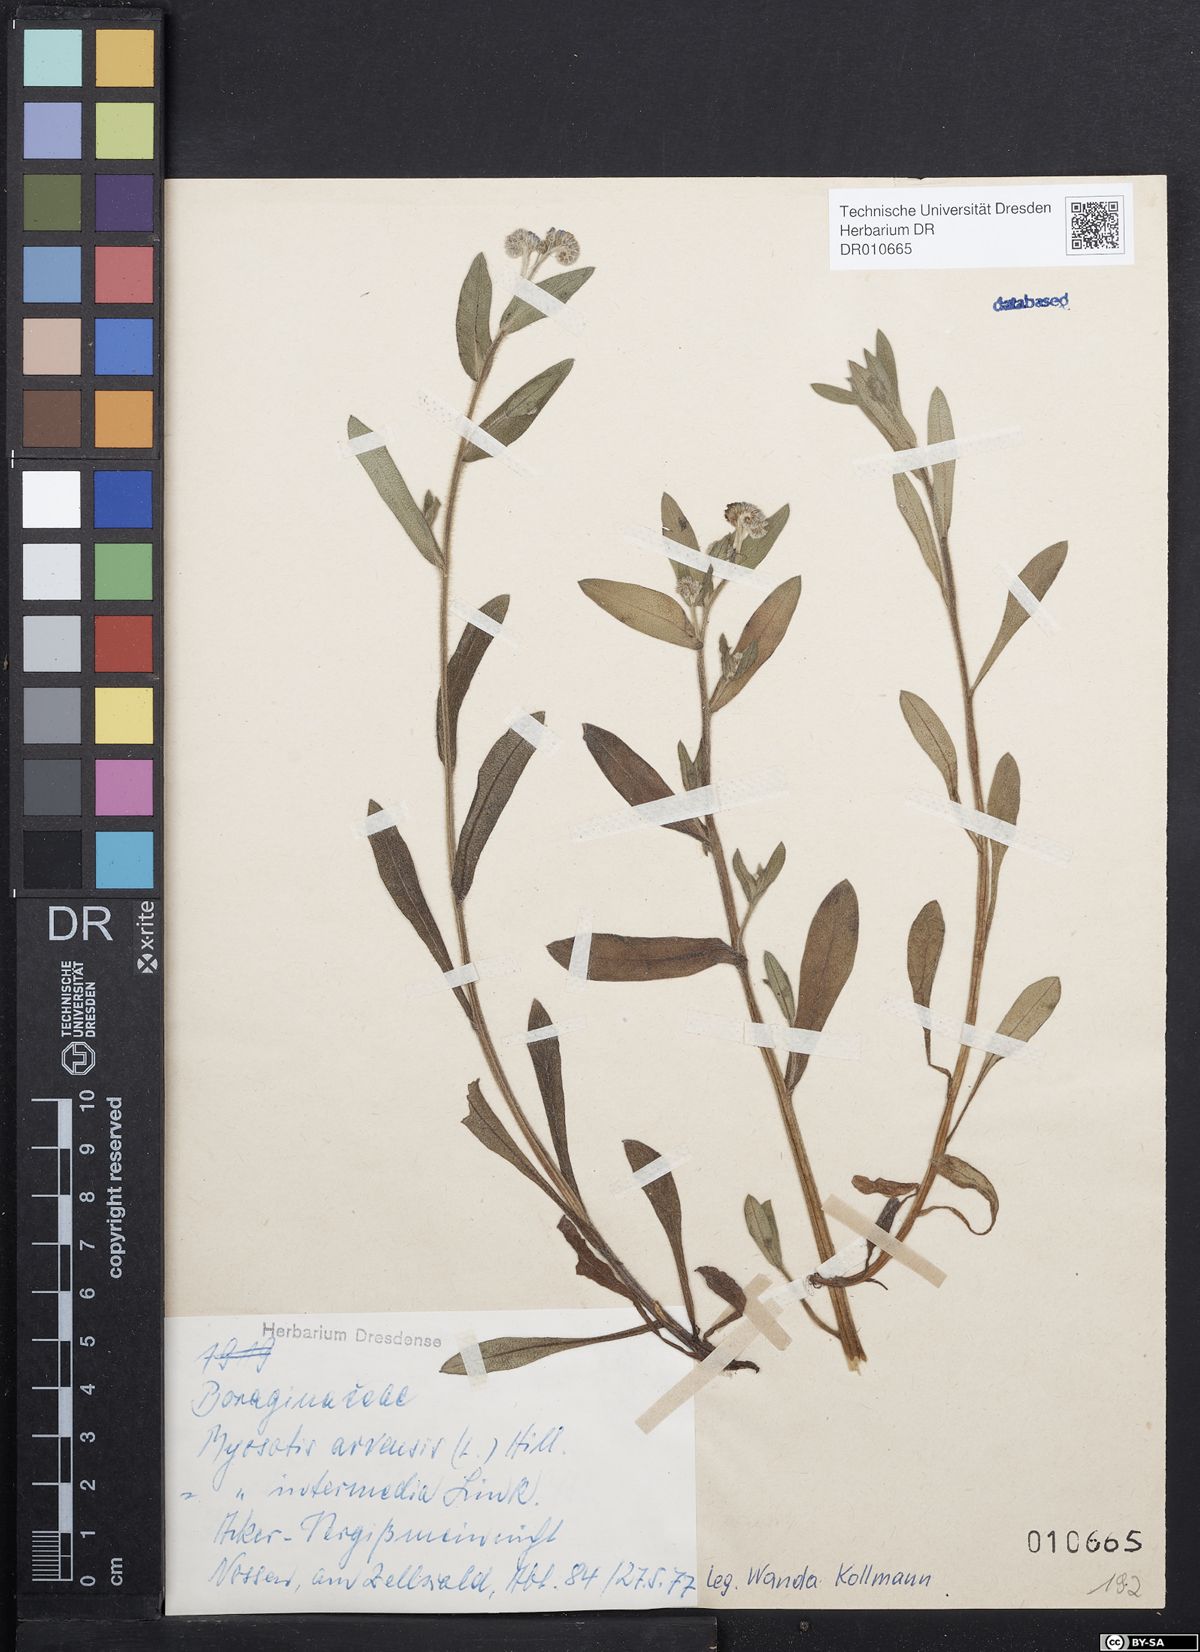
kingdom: Plantae
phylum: Tracheophyta
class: Magnoliopsida
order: Boraginales
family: Boraginaceae
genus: Myosotis
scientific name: Myosotis arvensis
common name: Field forget-me-not
